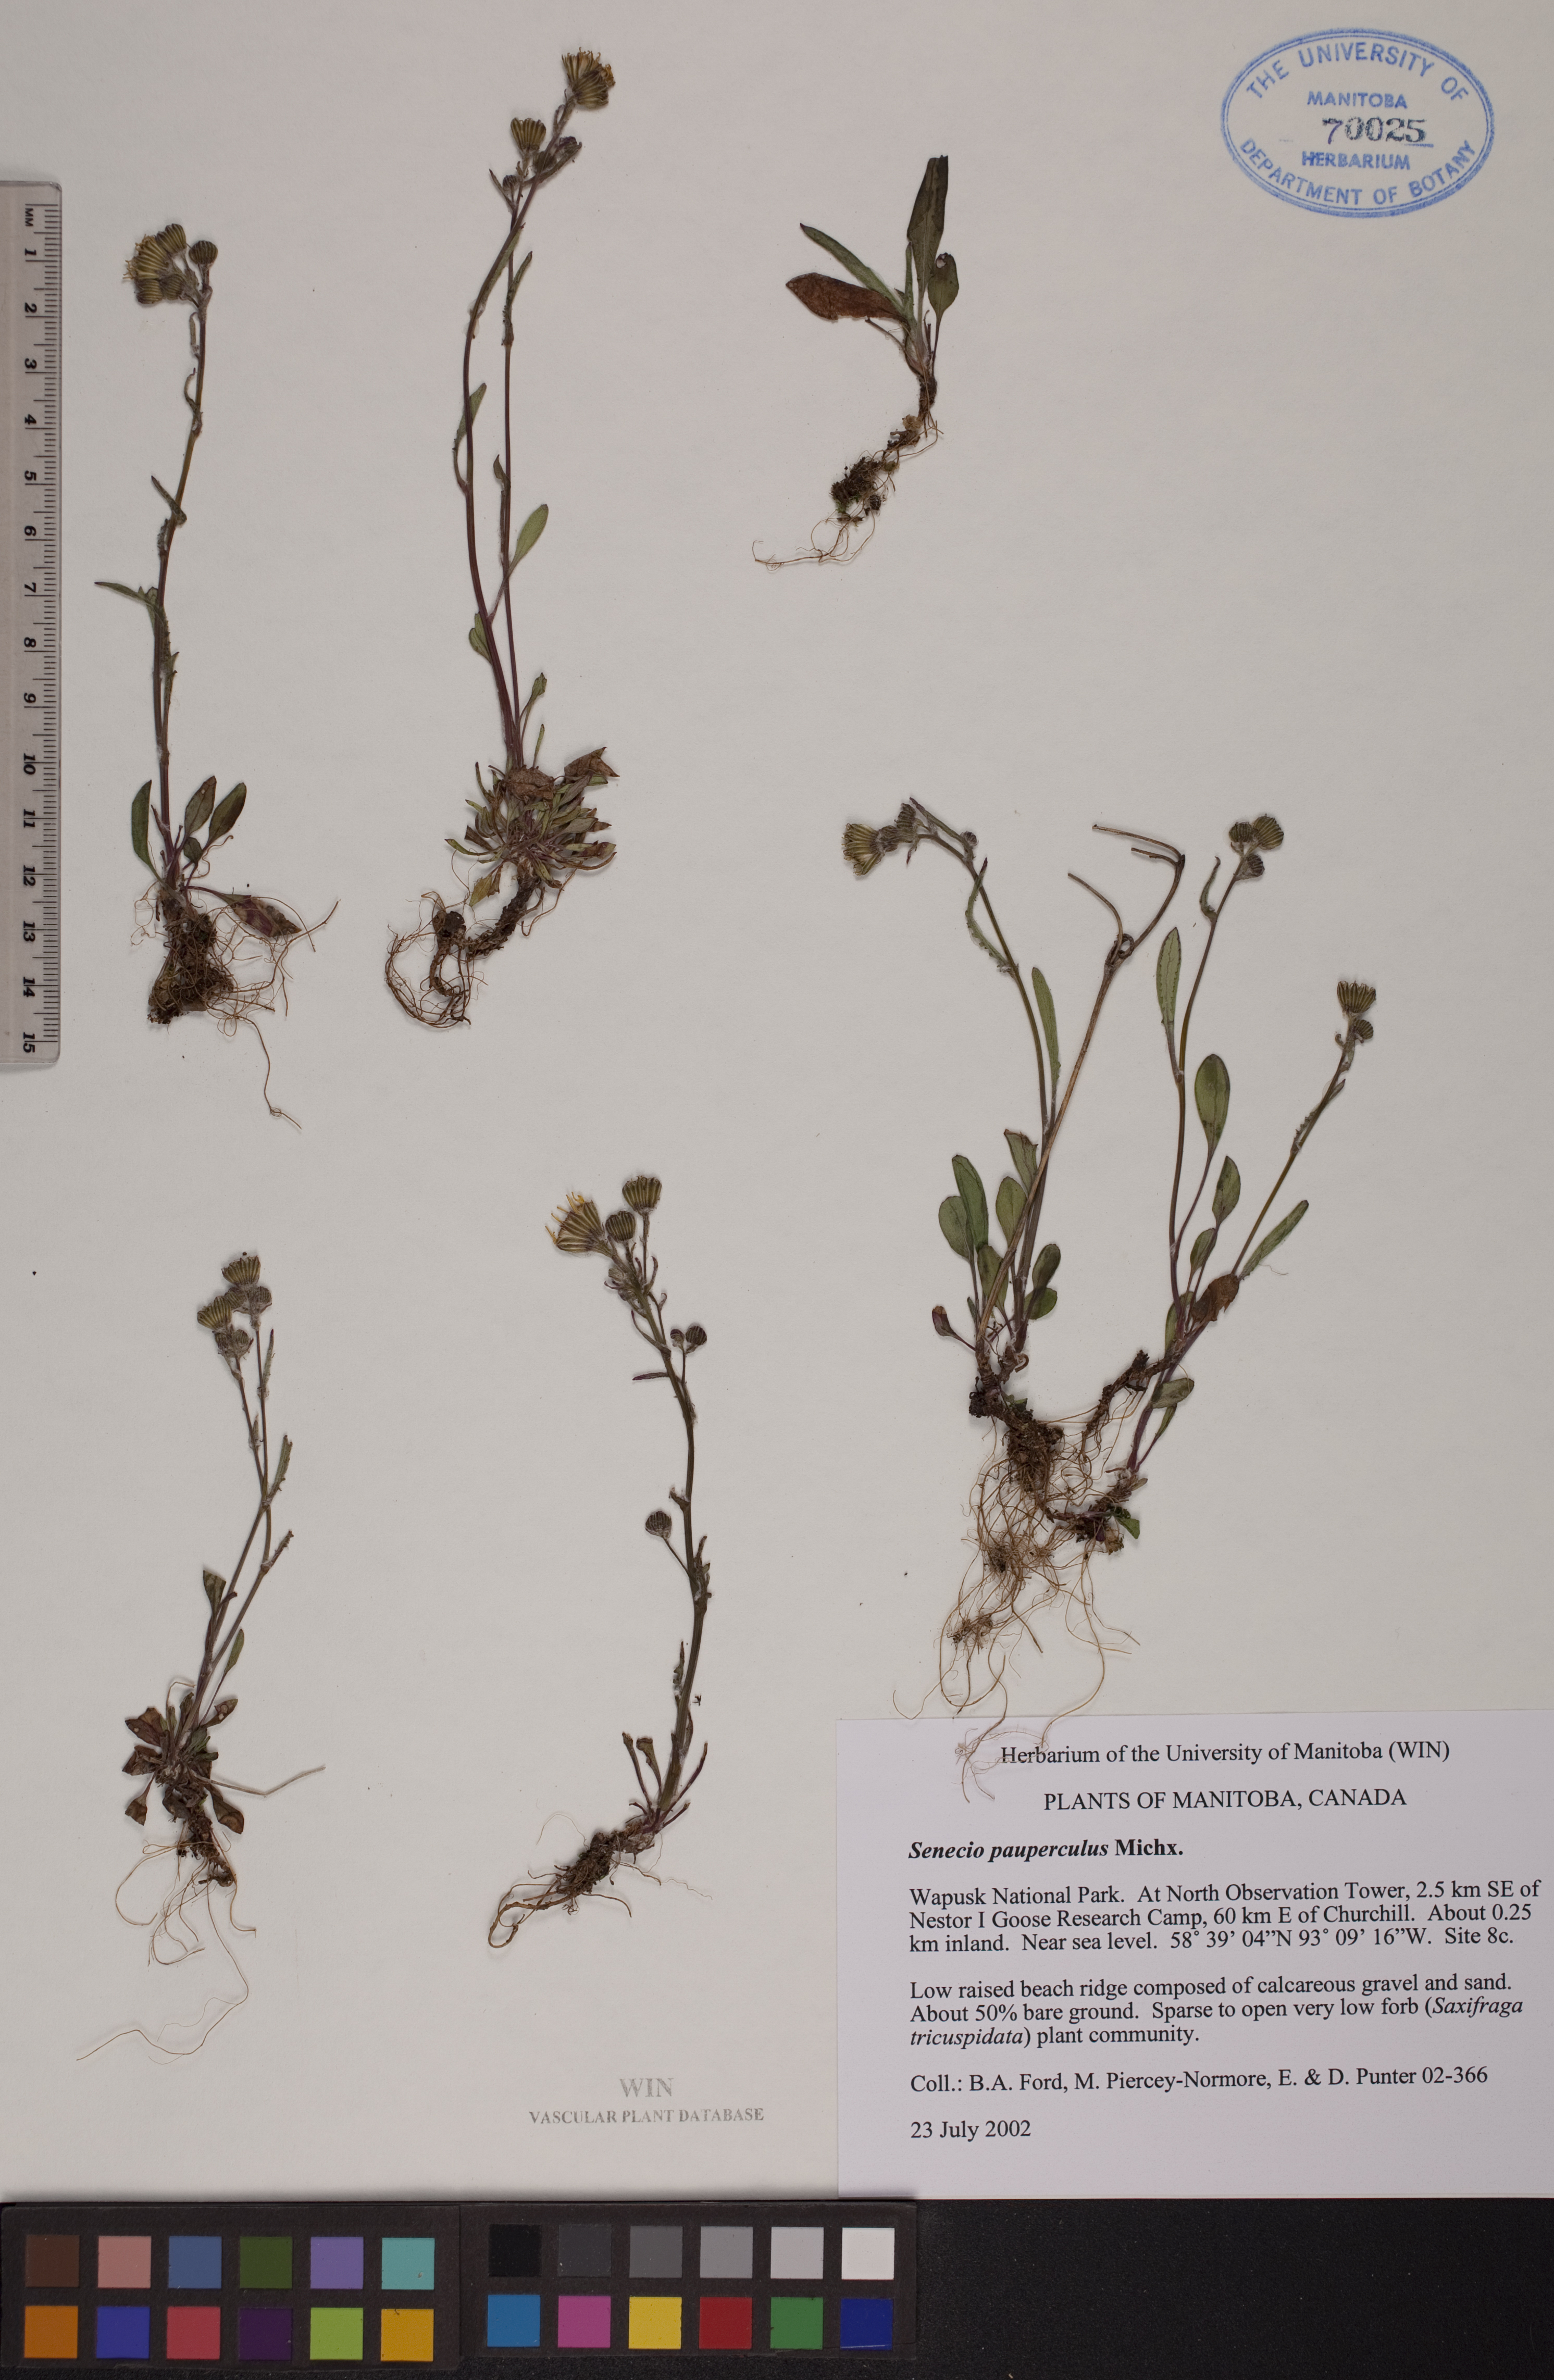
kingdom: Plantae
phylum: Tracheophyta
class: Magnoliopsida
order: Asterales
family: Asteraceae
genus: Packera
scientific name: Packera paupercula
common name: Balsam groundsel
